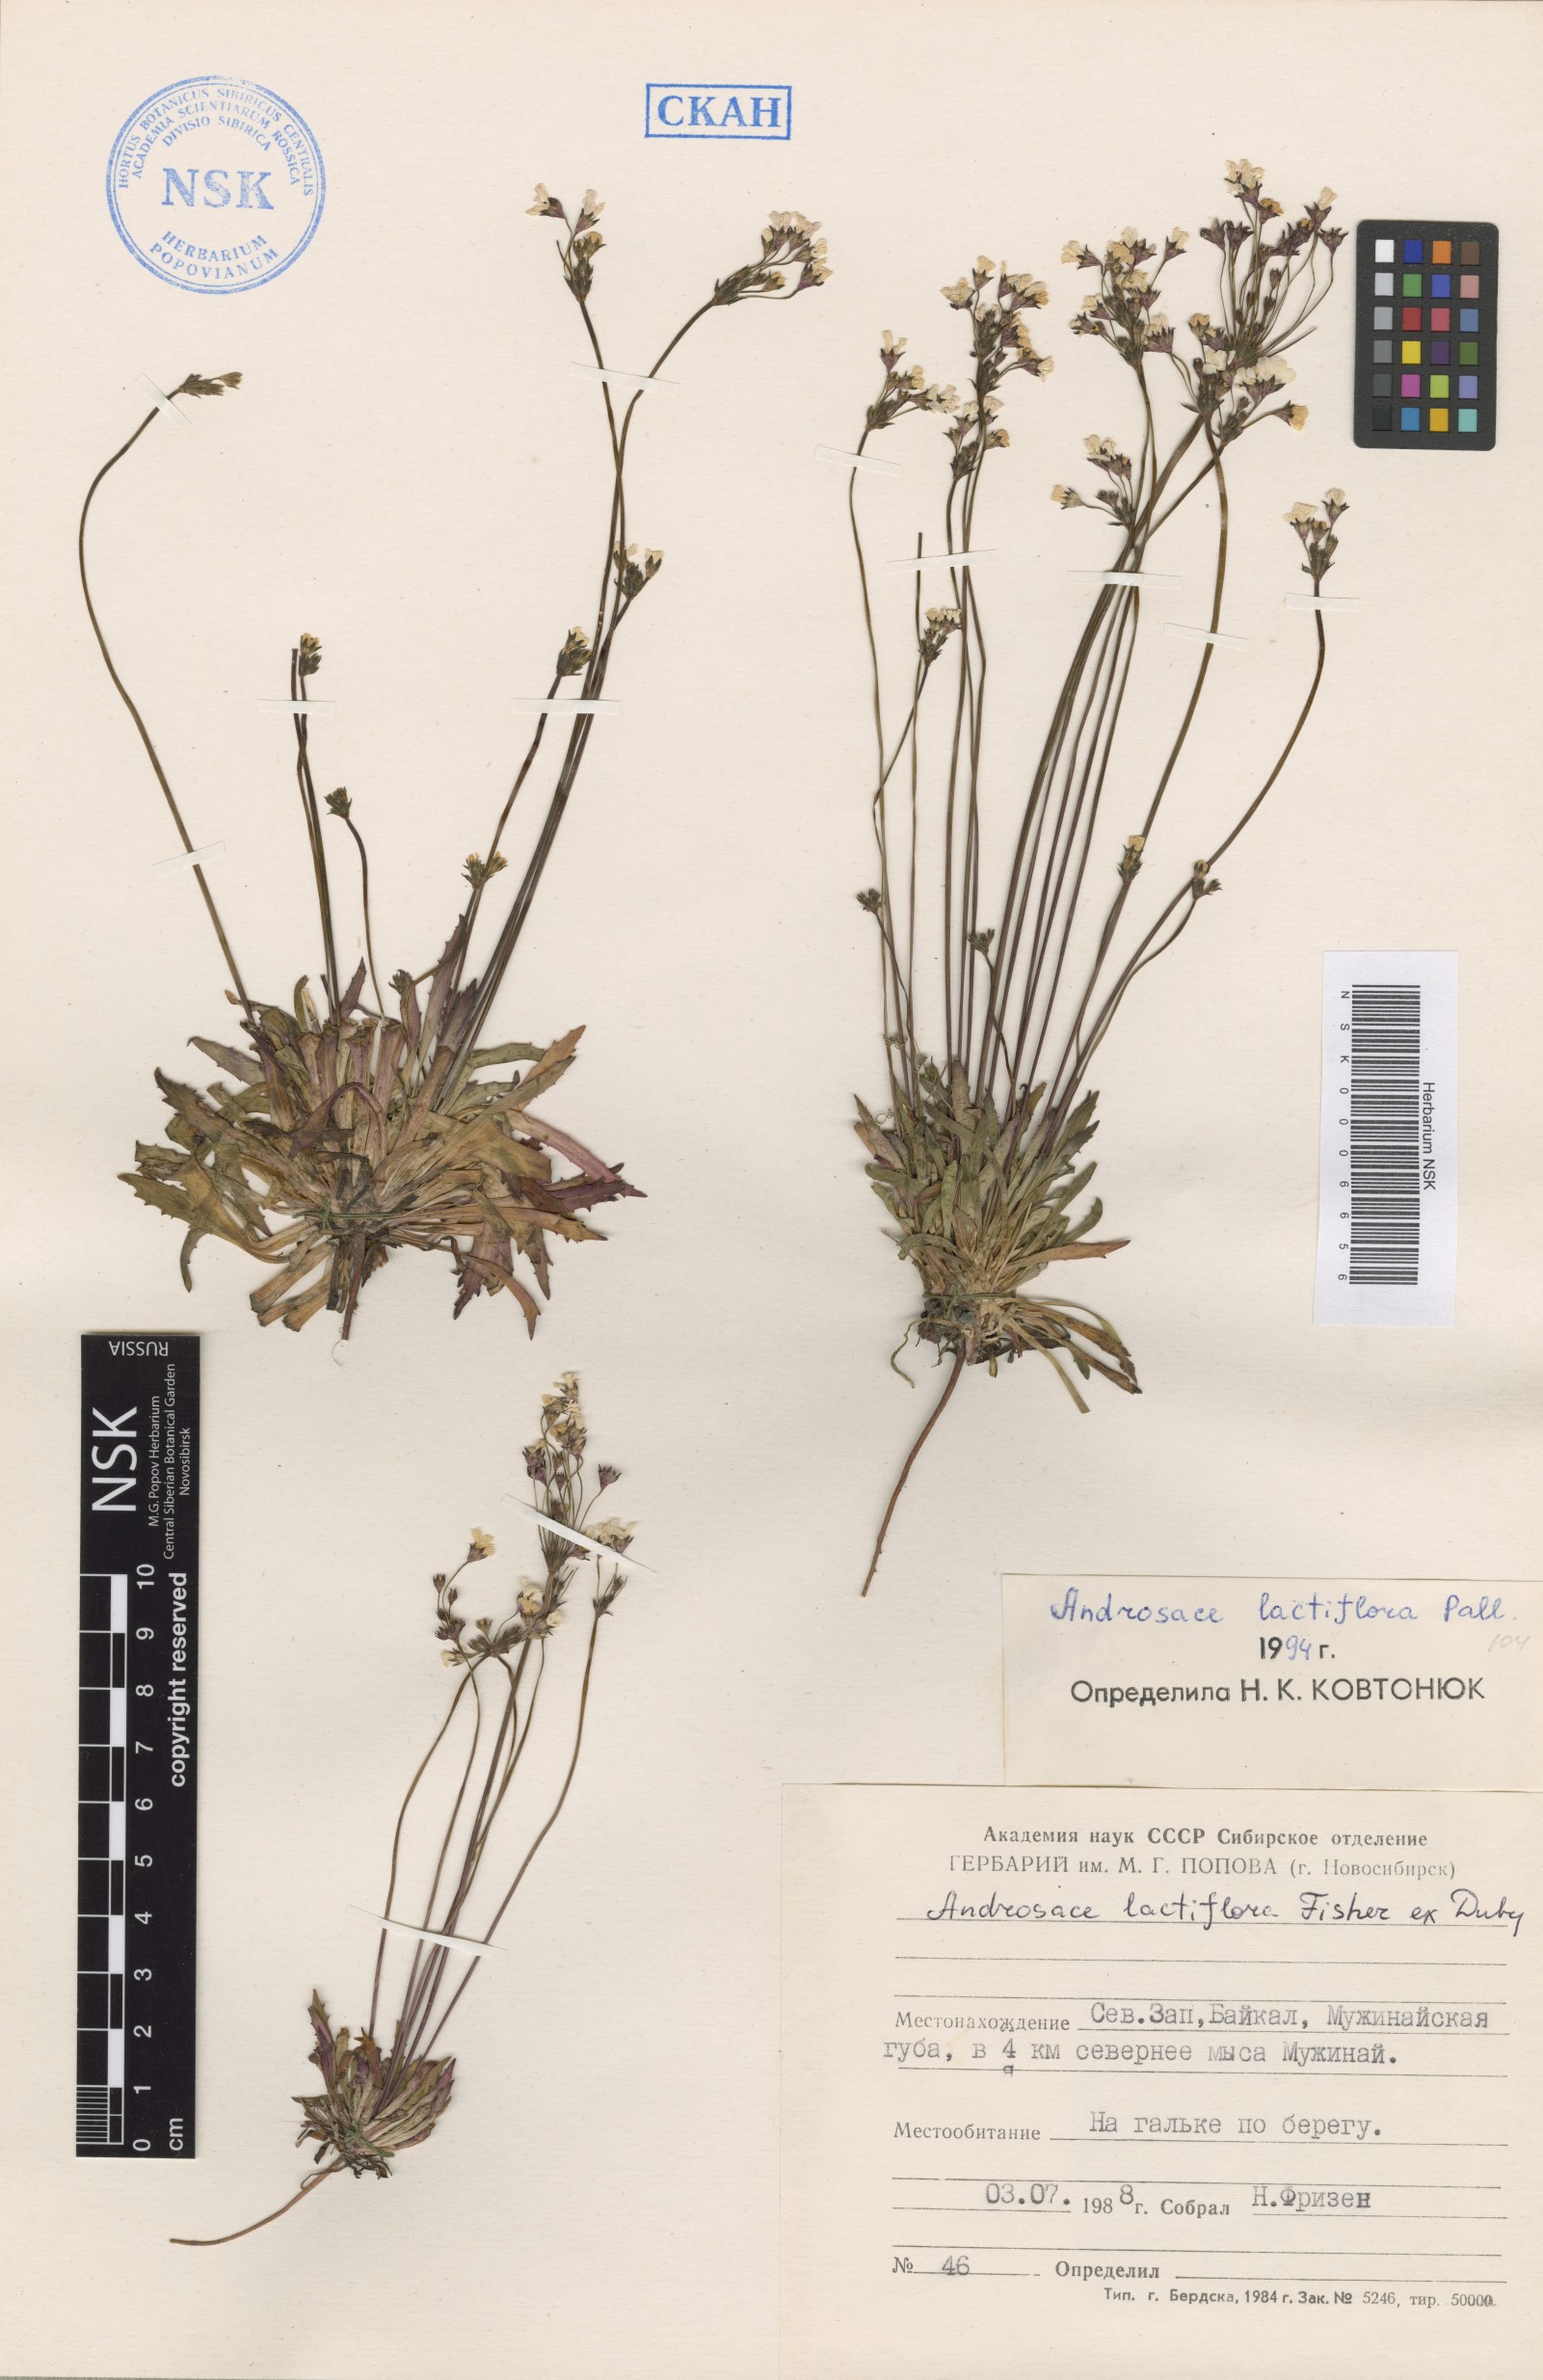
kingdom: Plantae
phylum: Tracheophyta
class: Magnoliopsida
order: Ericales
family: Primulaceae
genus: Androsace
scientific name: Androsace lactiflora
